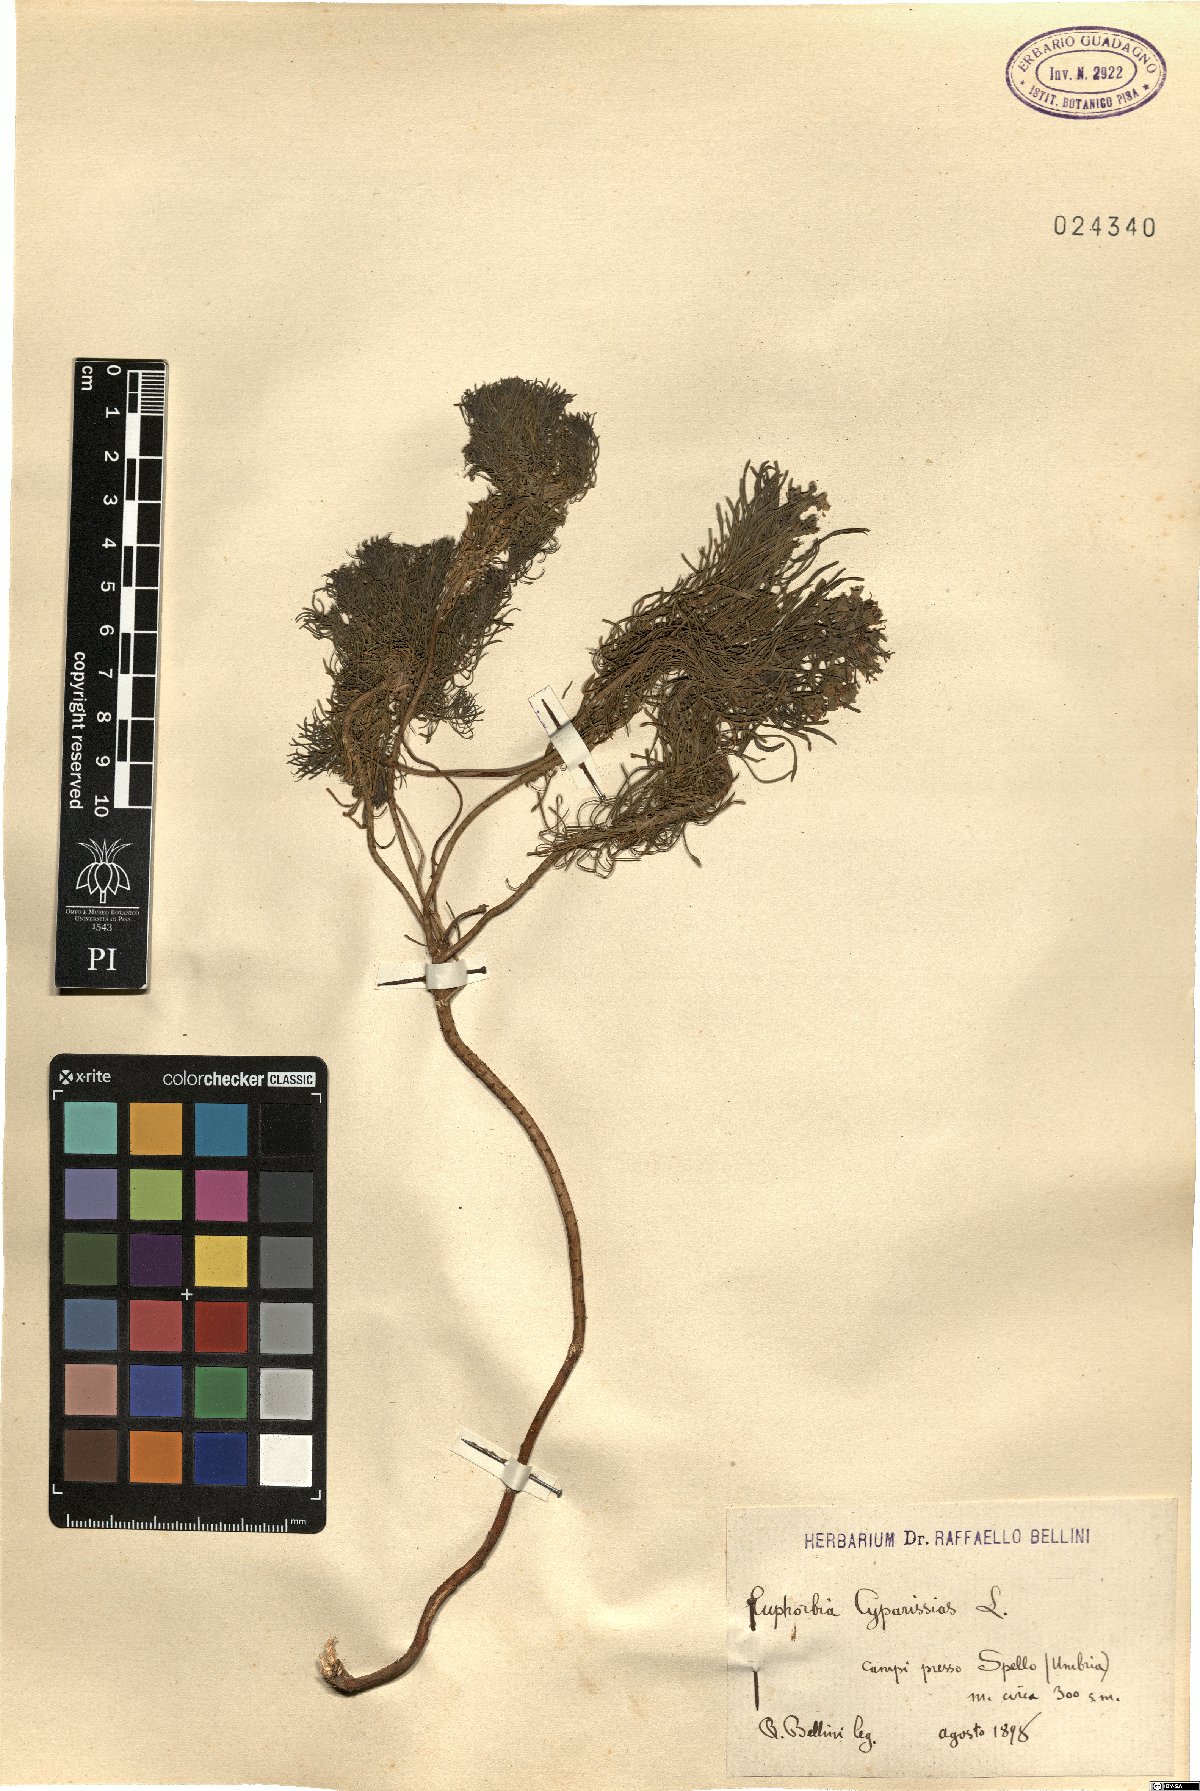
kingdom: Plantae
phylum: Tracheophyta
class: Magnoliopsida
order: Malpighiales
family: Euphorbiaceae
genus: Euphorbia
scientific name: Euphorbia cyparissias
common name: Cypress spurge
